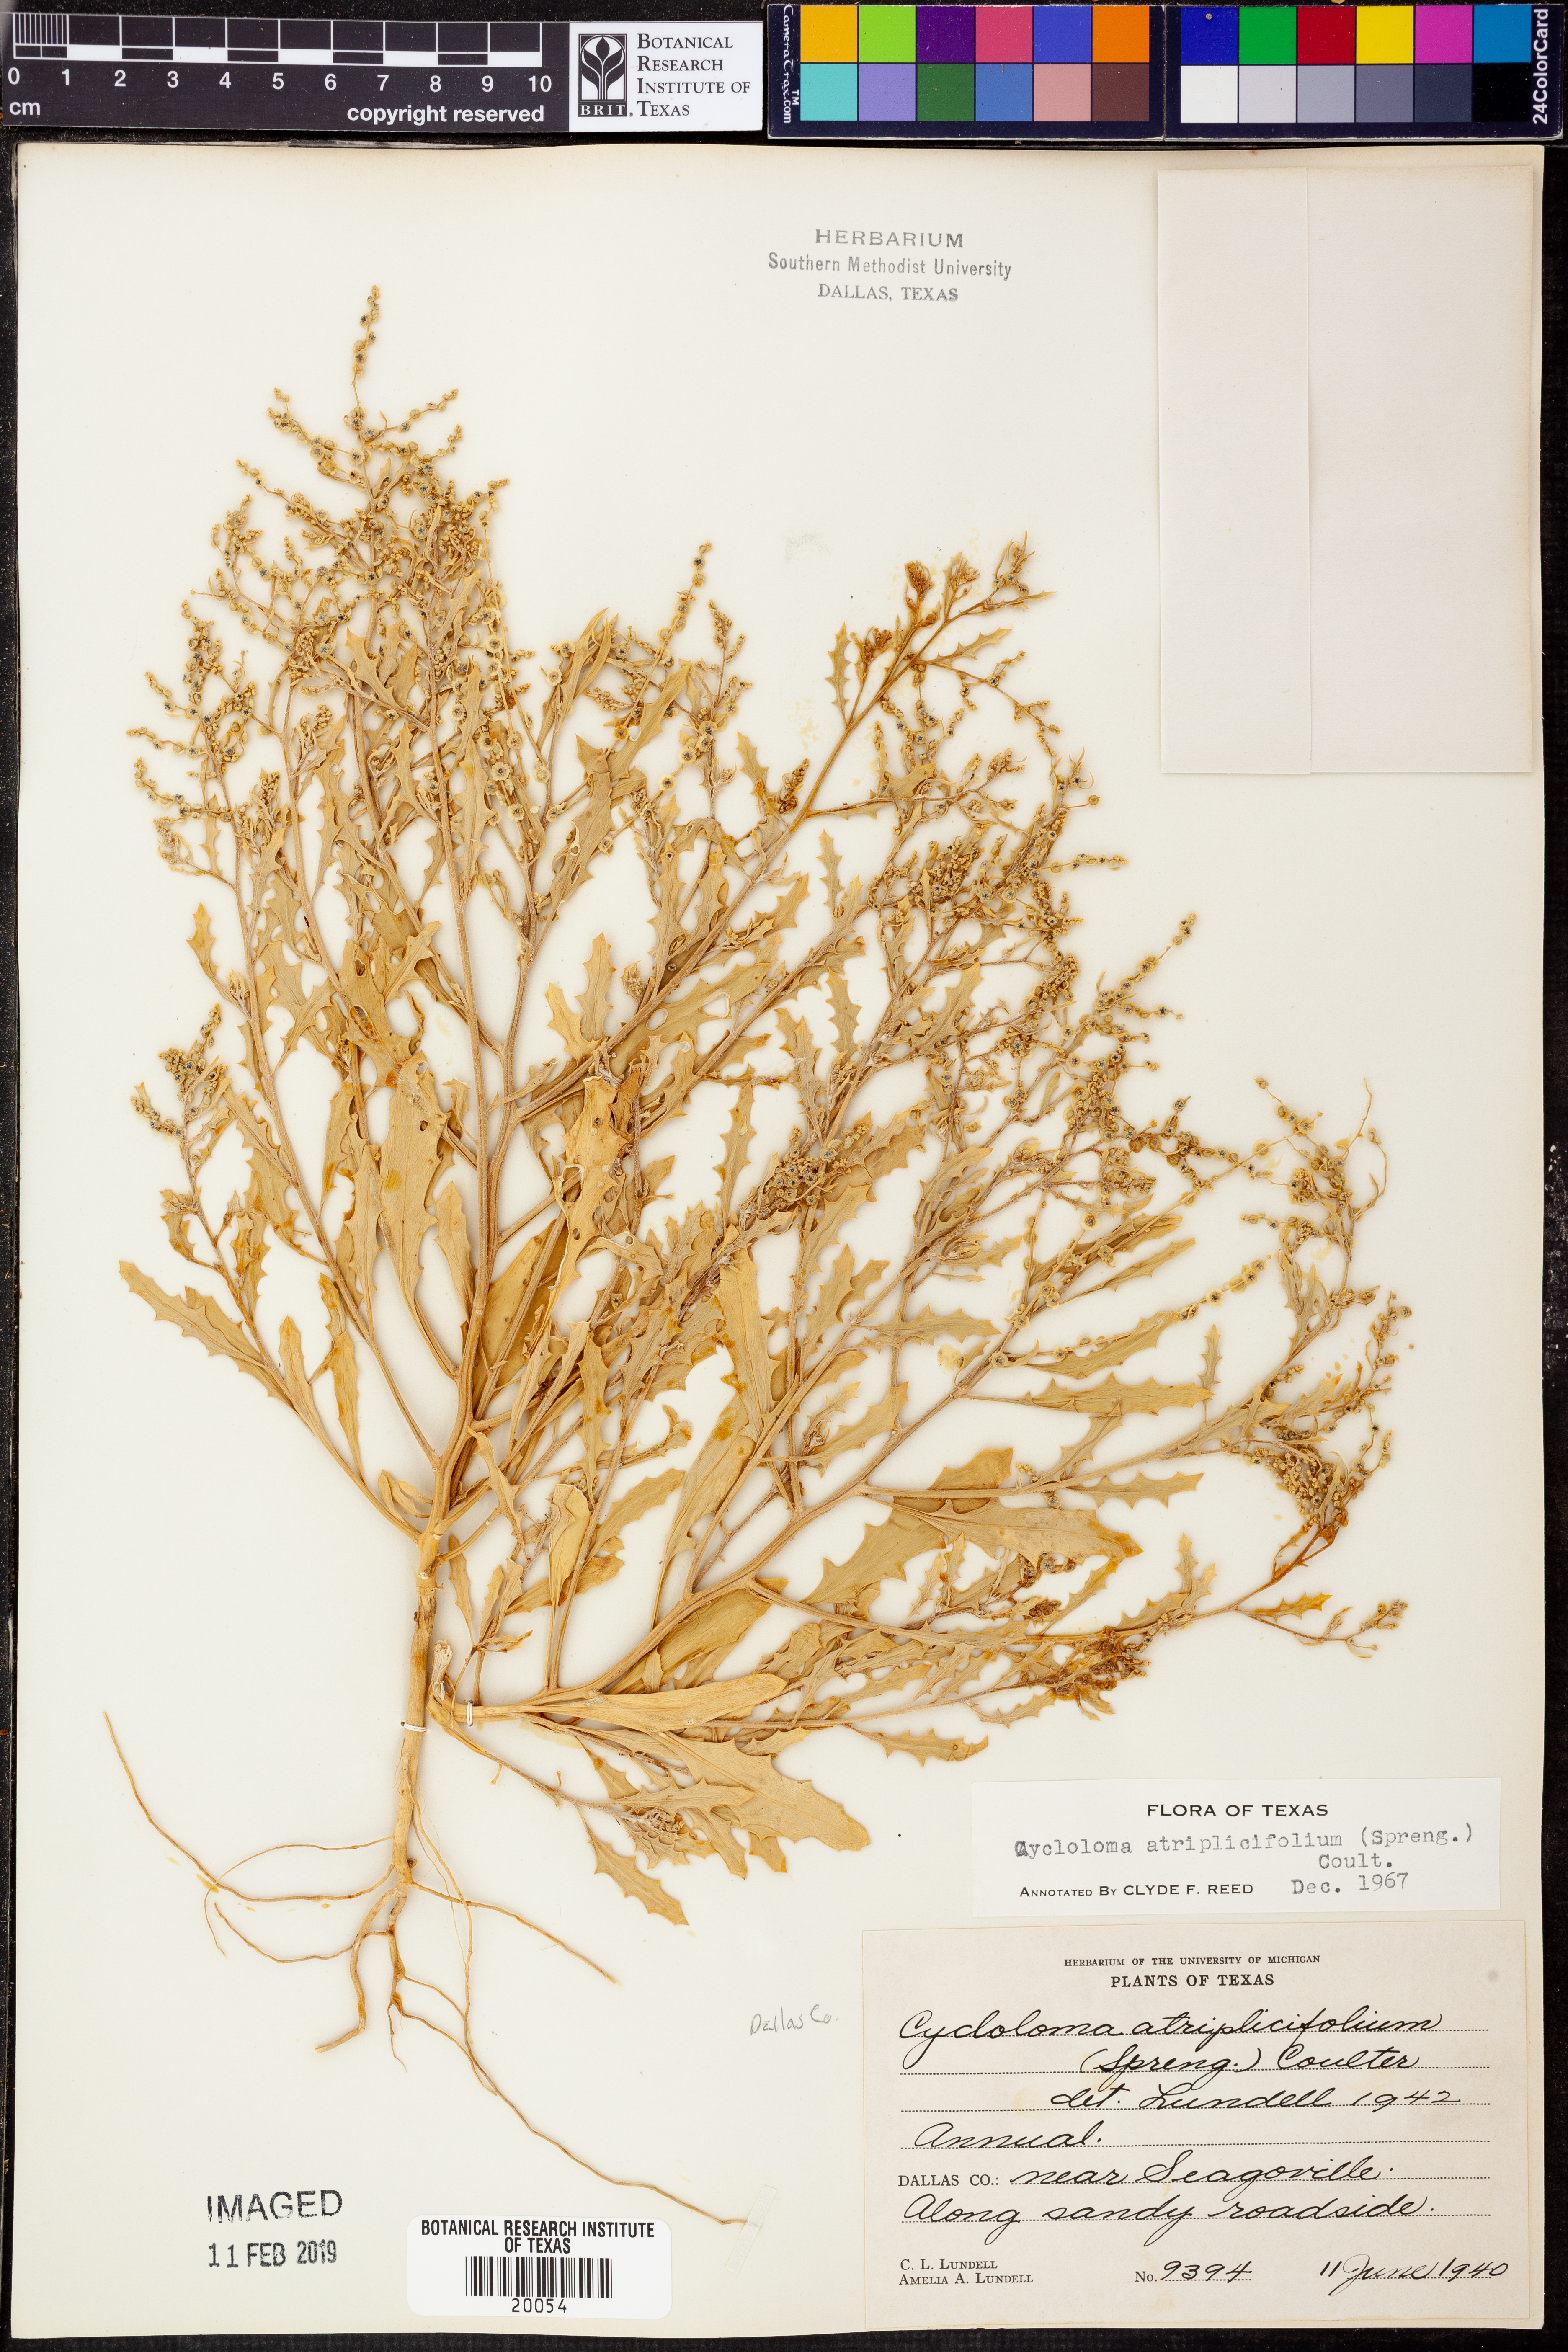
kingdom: Plantae
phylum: Tracheophyta
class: Magnoliopsida
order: Caryophyllales
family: Amaranthaceae
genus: Dysphania
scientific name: Dysphania atriplicifolia
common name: Plains tumbleweed
